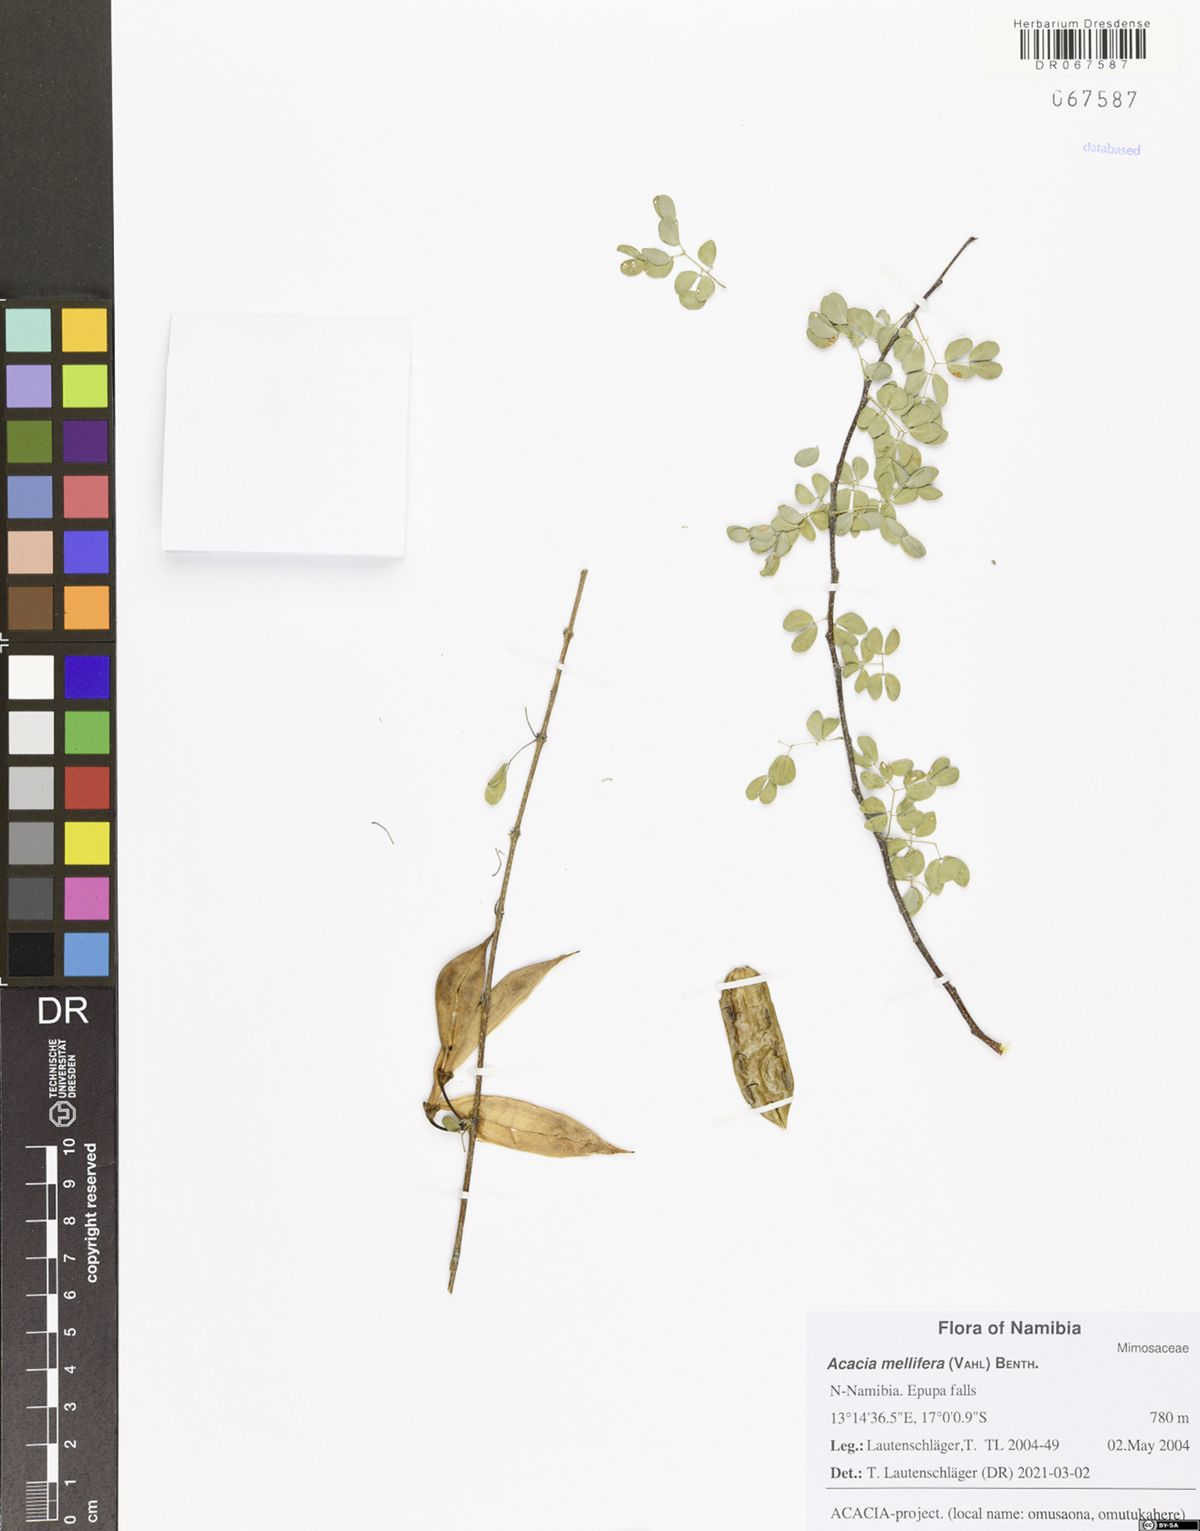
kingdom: Plantae
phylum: Tracheophyta
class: Magnoliopsida
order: Fabales
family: Fabaceae
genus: Senegalia
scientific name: Senegalia mellifera
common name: Hookthorn
